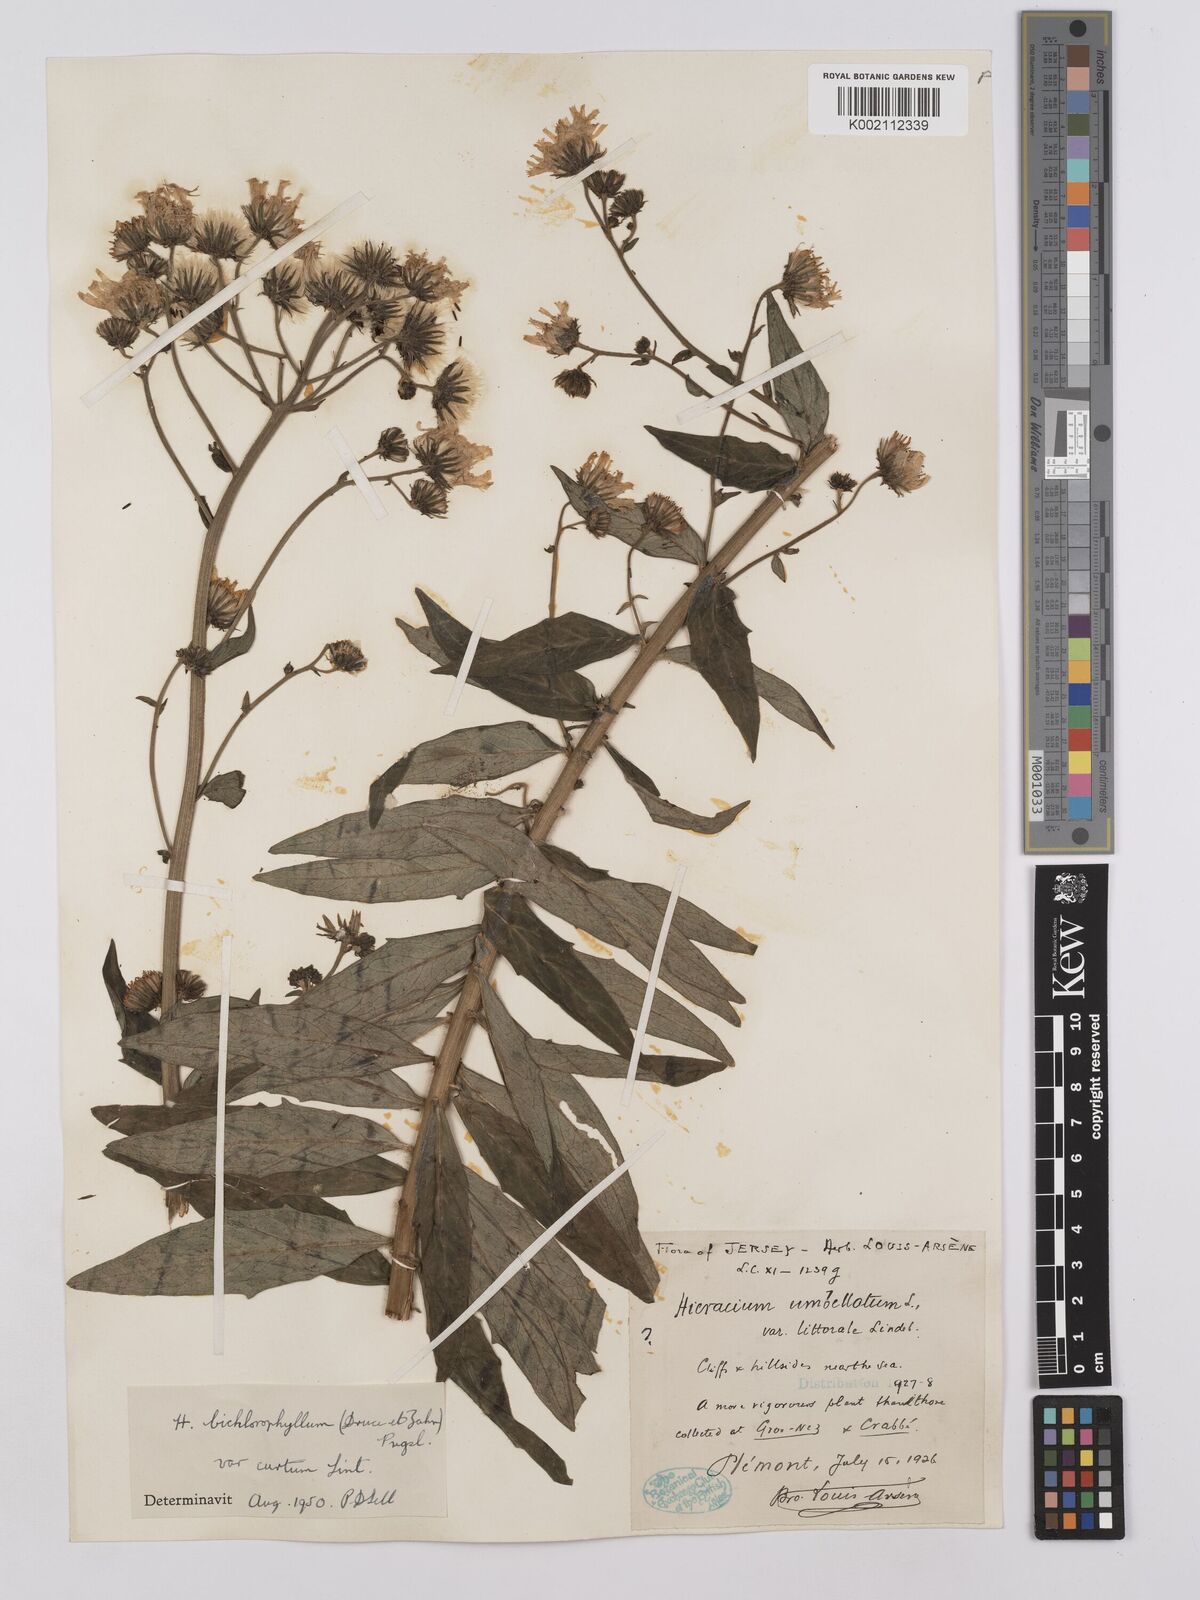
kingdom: Plantae
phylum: Tracheophyta
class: Magnoliopsida
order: Asterales
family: Asteraceae
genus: Hieracium
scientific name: Hieracium umbellatum
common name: Northern hawkweed
